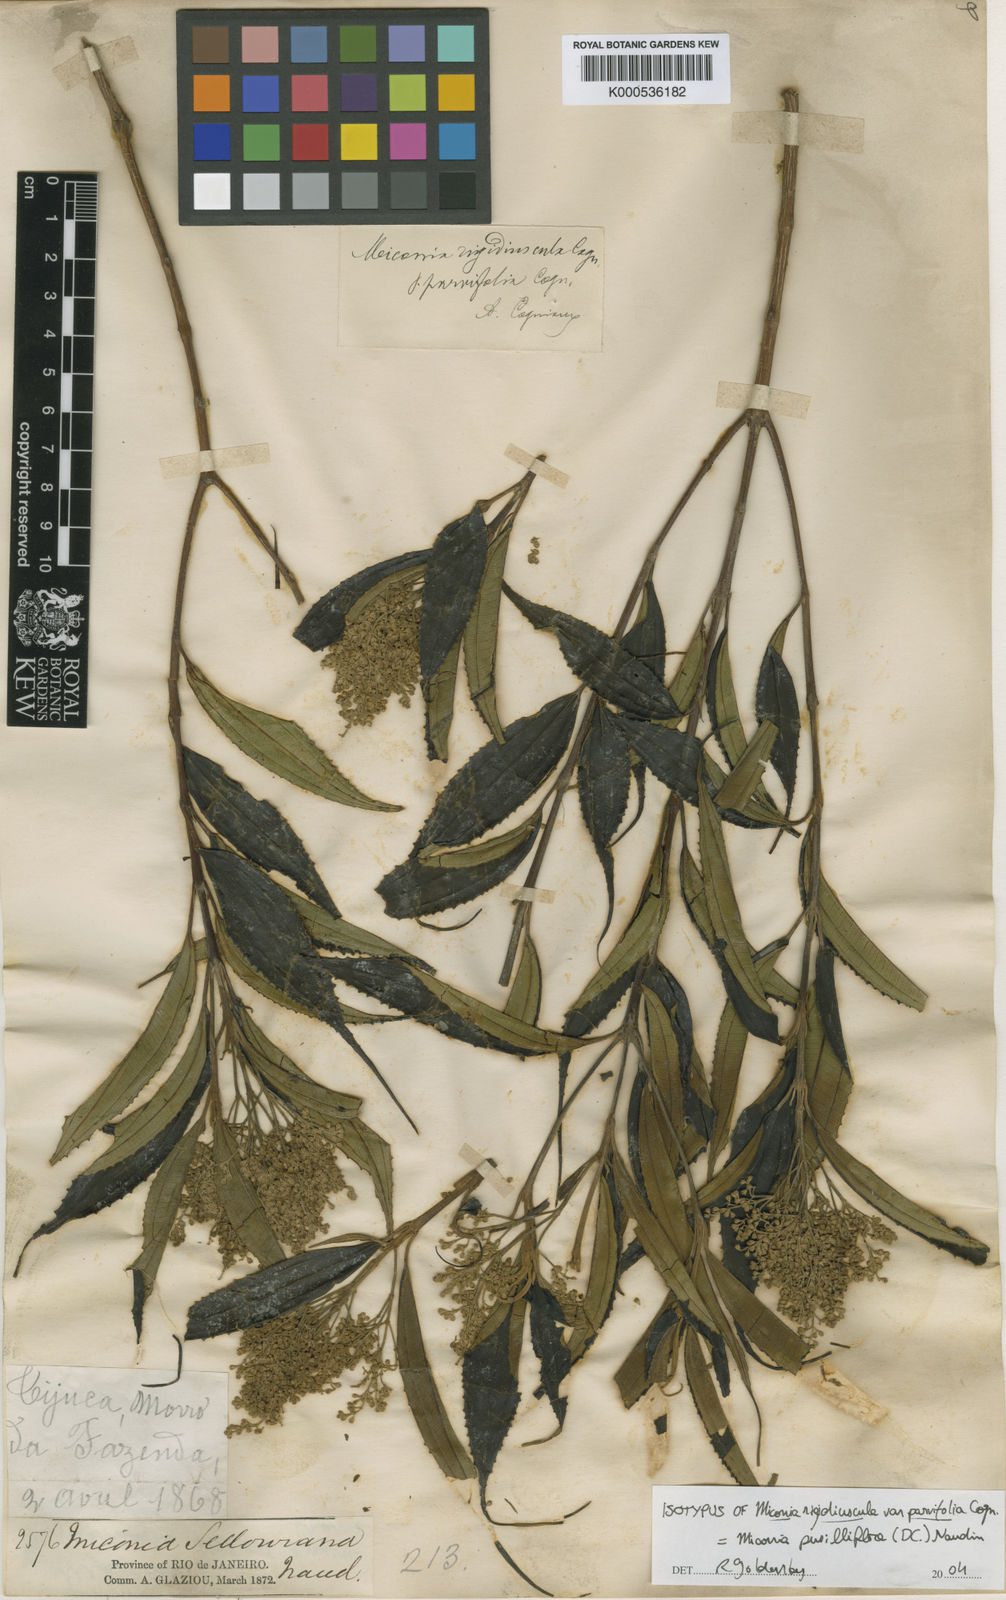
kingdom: Plantae
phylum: Tracheophyta
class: Magnoliopsida
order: Myrtales
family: Melastomataceae
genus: Miconia
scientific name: Miconia pusilliflora
